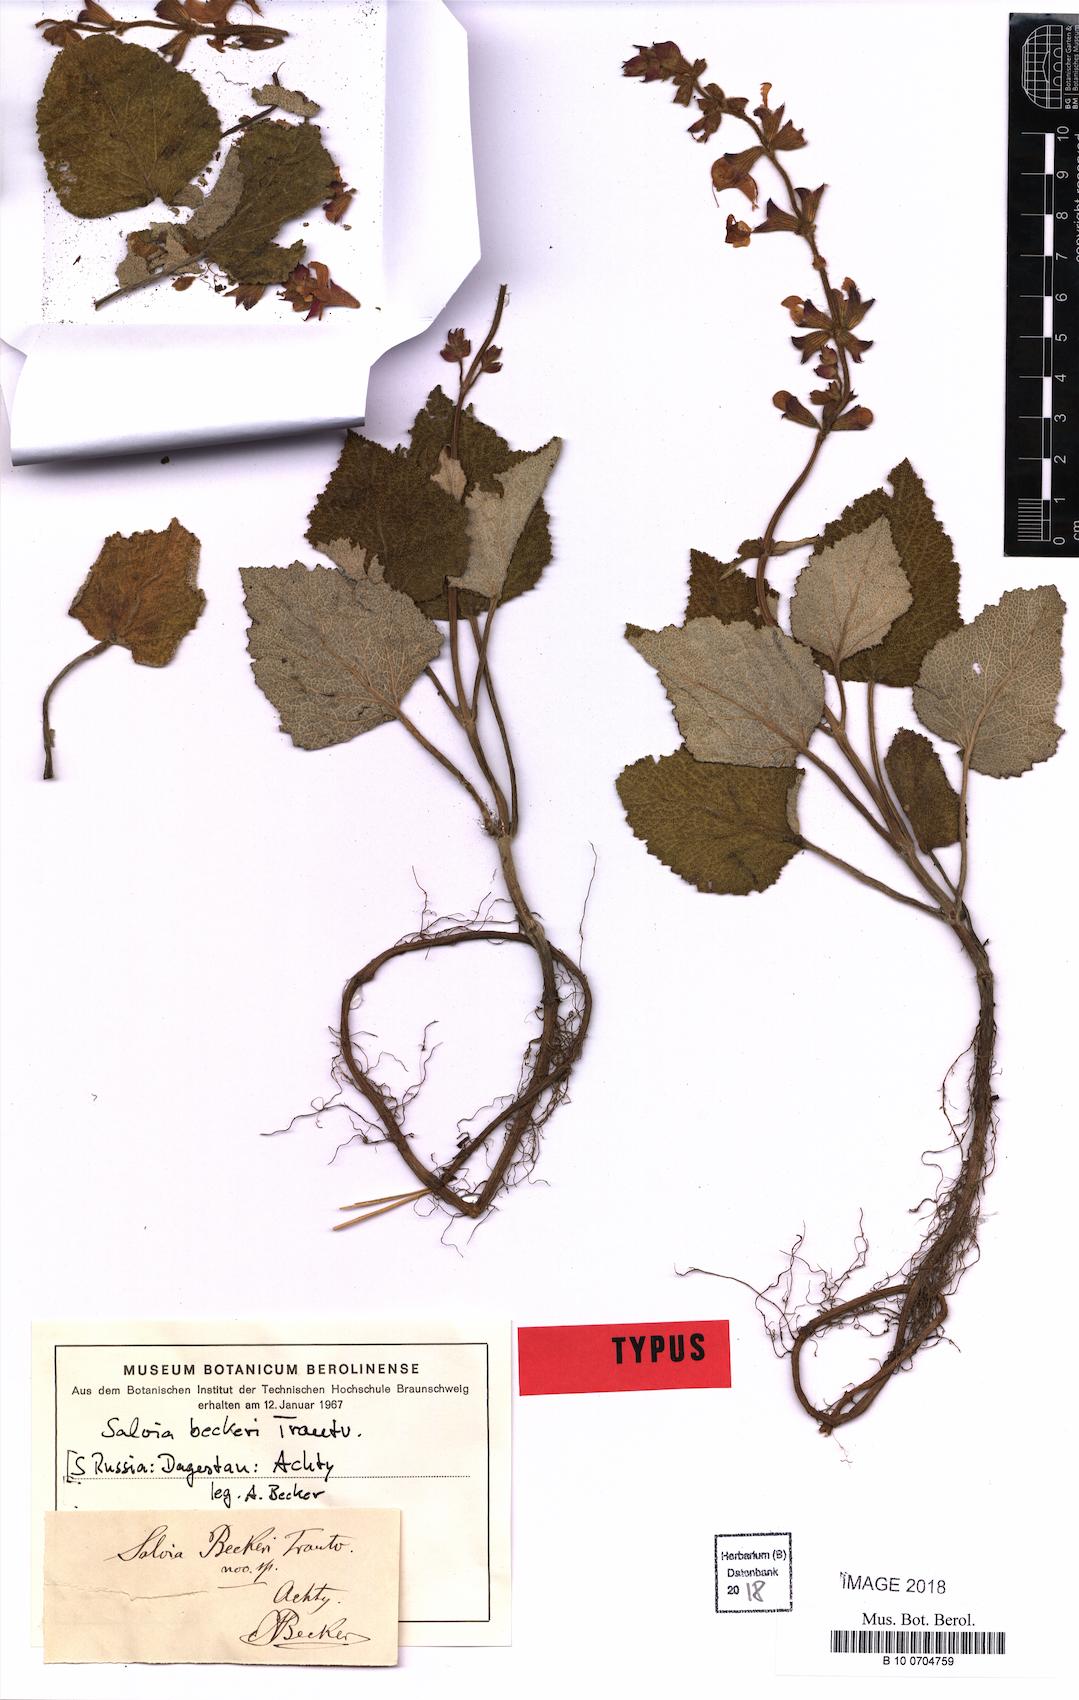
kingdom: Plantae
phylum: Tracheophyta
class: Magnoliopsida
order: Lamiales
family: Lamiaceae
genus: Salvia
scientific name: Salvia beckeri
